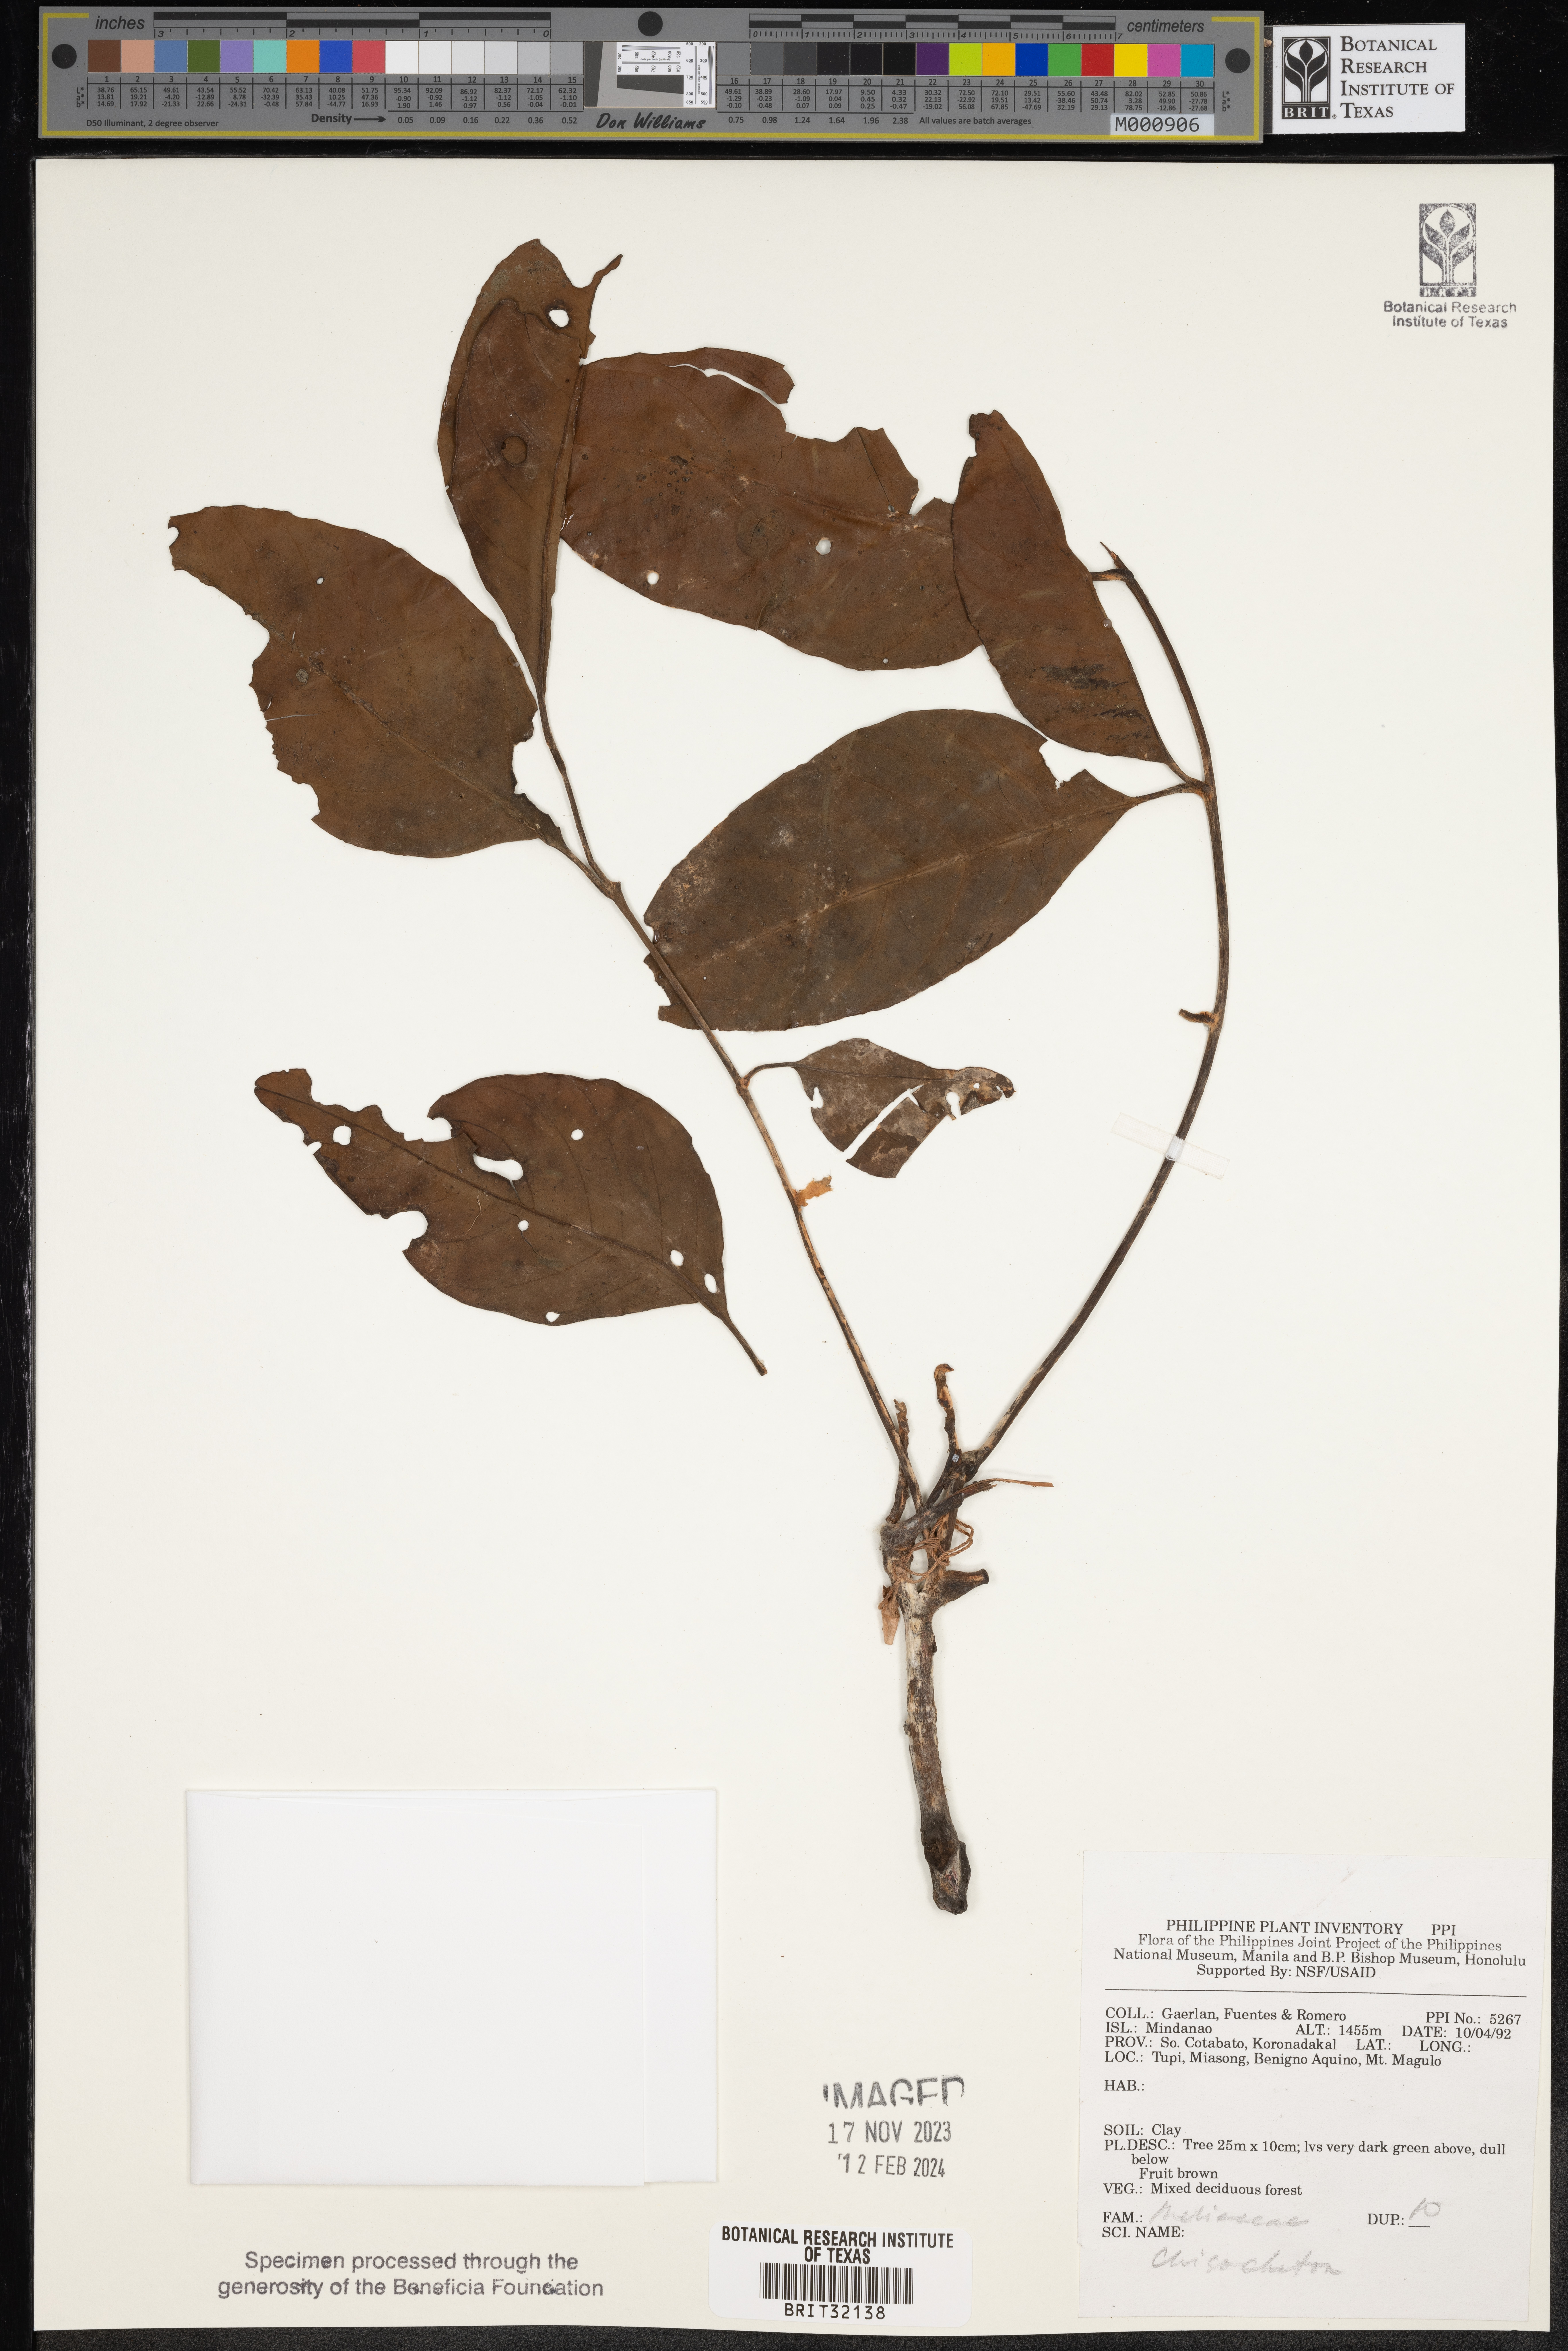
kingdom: Plantae
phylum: Tracheophyta
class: Magnoliopsida
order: Sapindales
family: Meliaceae
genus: Chisocheton
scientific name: Chisocheton
